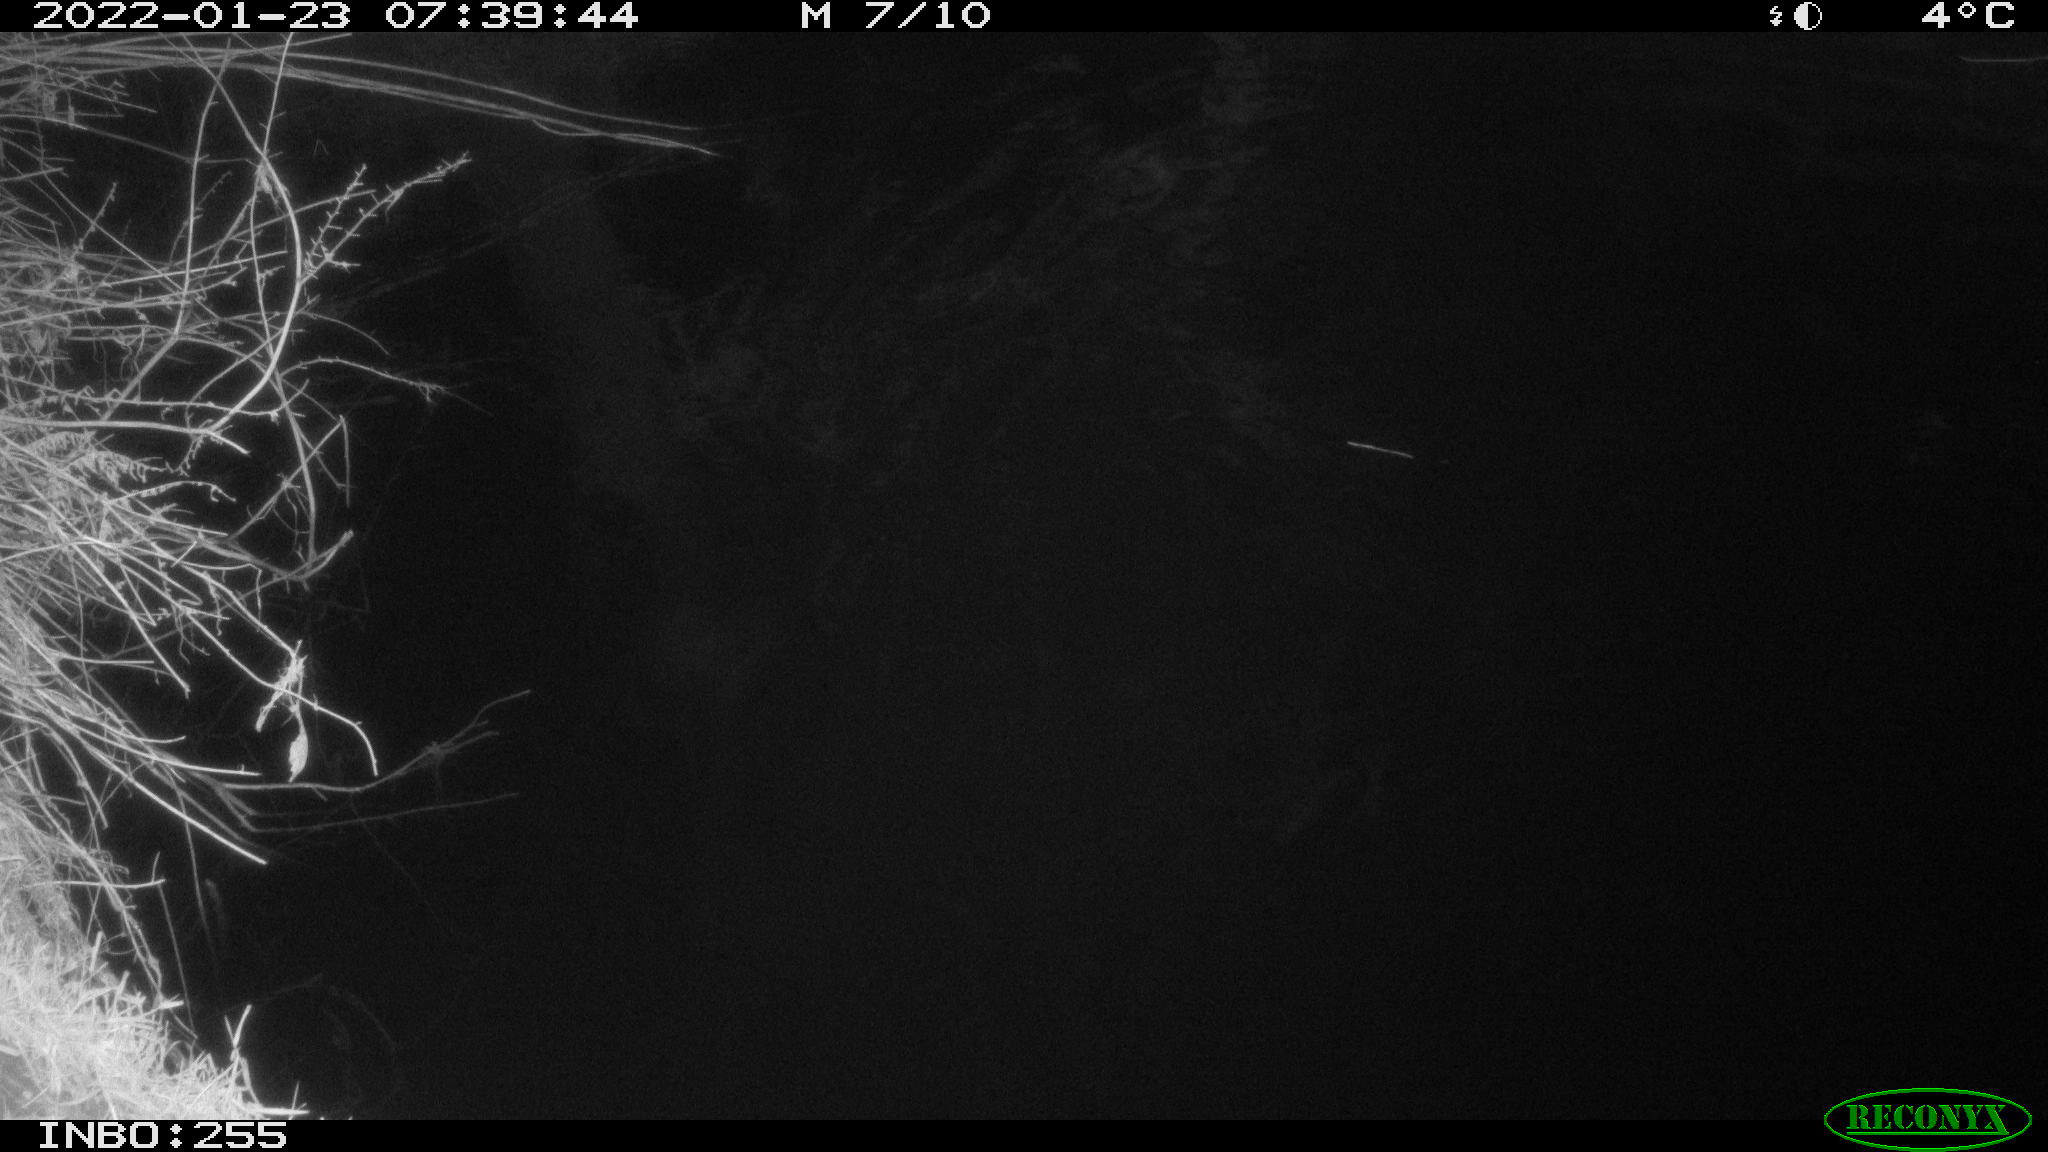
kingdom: Animalia
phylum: Chordata
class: Aves
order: Gruiformes
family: Rallidae
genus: Fulica
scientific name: Fulica atra
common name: Eurasian coot
